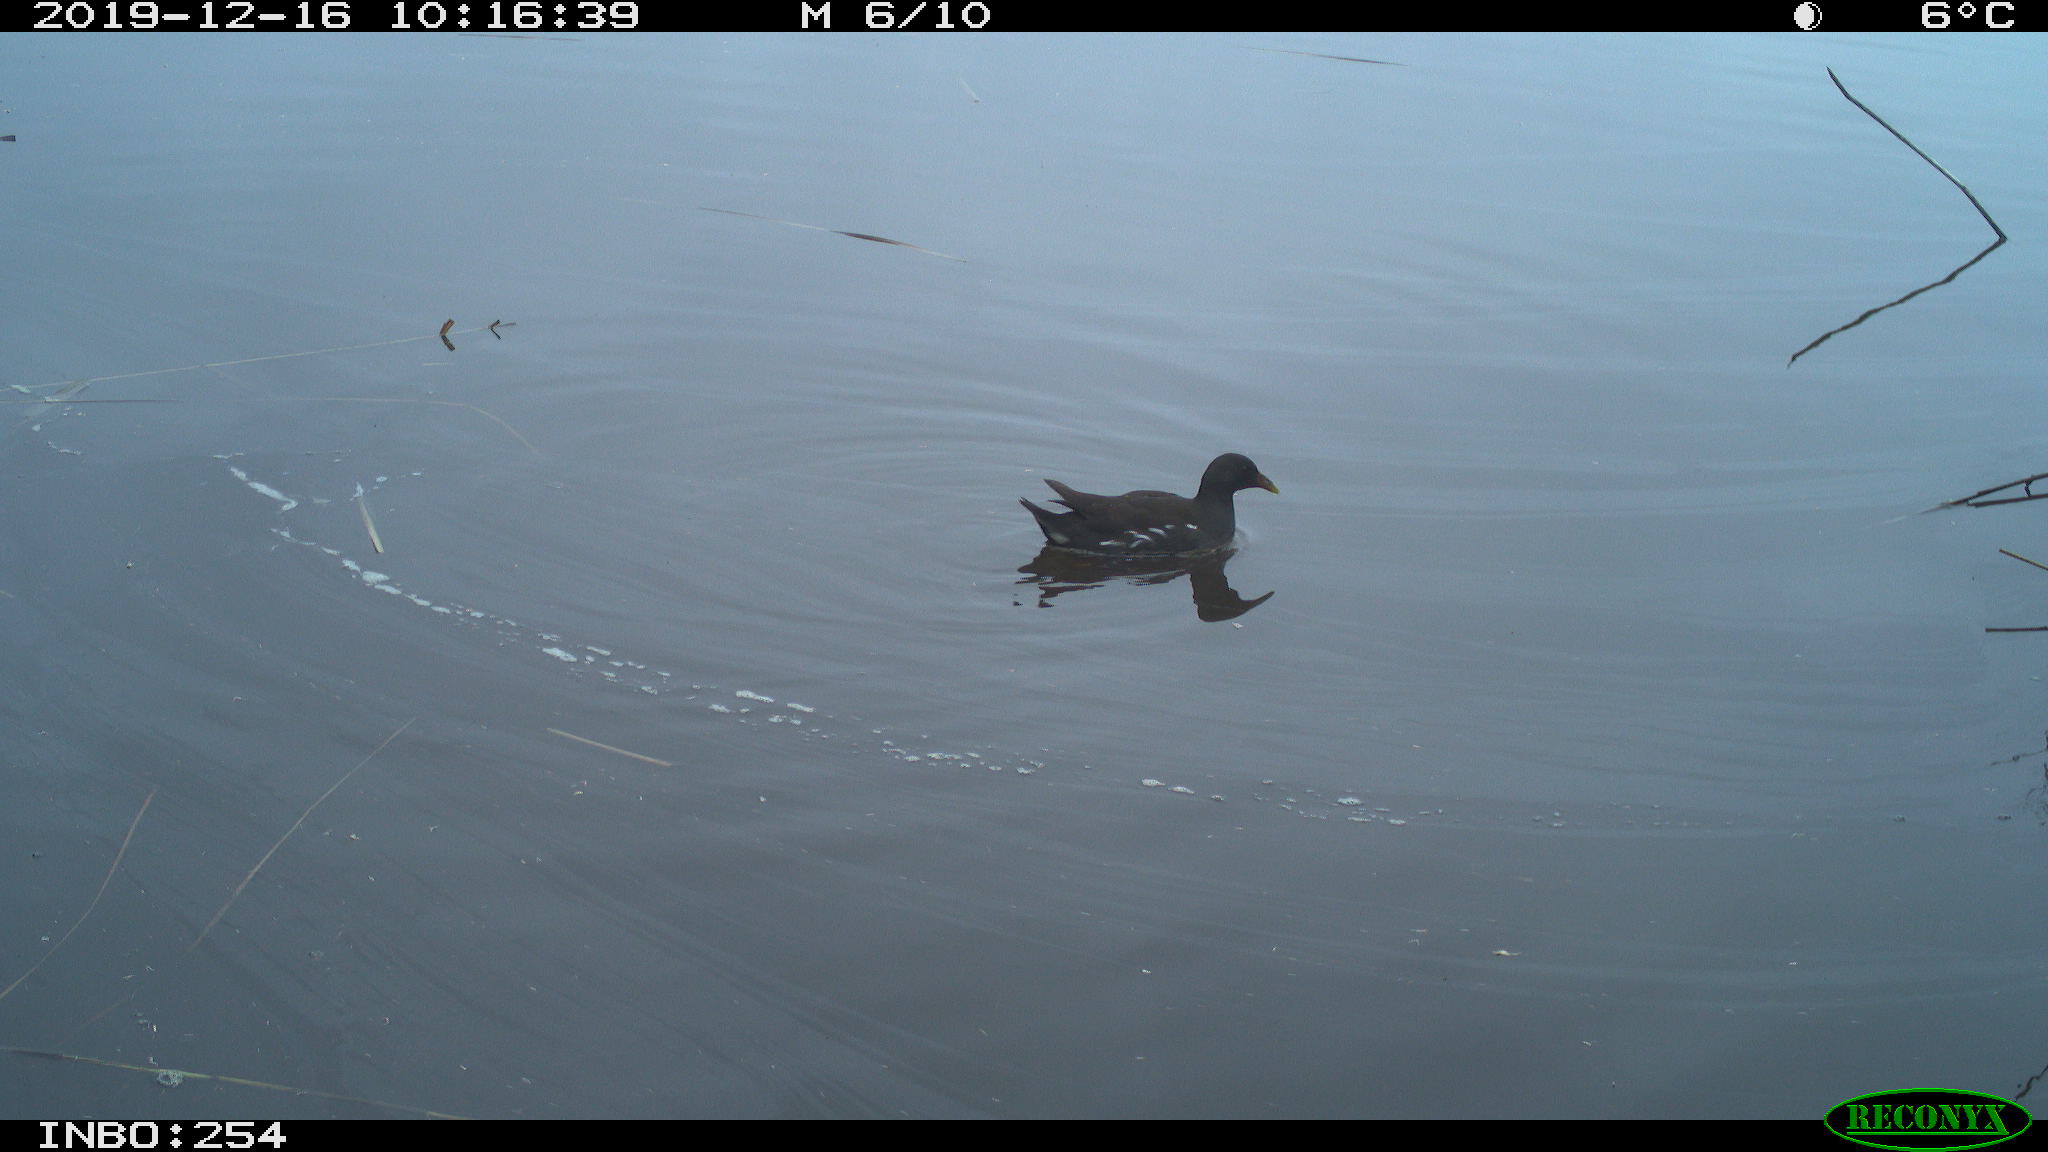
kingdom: Animalia
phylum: Chordata
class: Aves
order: Gruiformes
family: Rallidae
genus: Gallinula
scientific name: Gallinula chloropus
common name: Common moorhen
